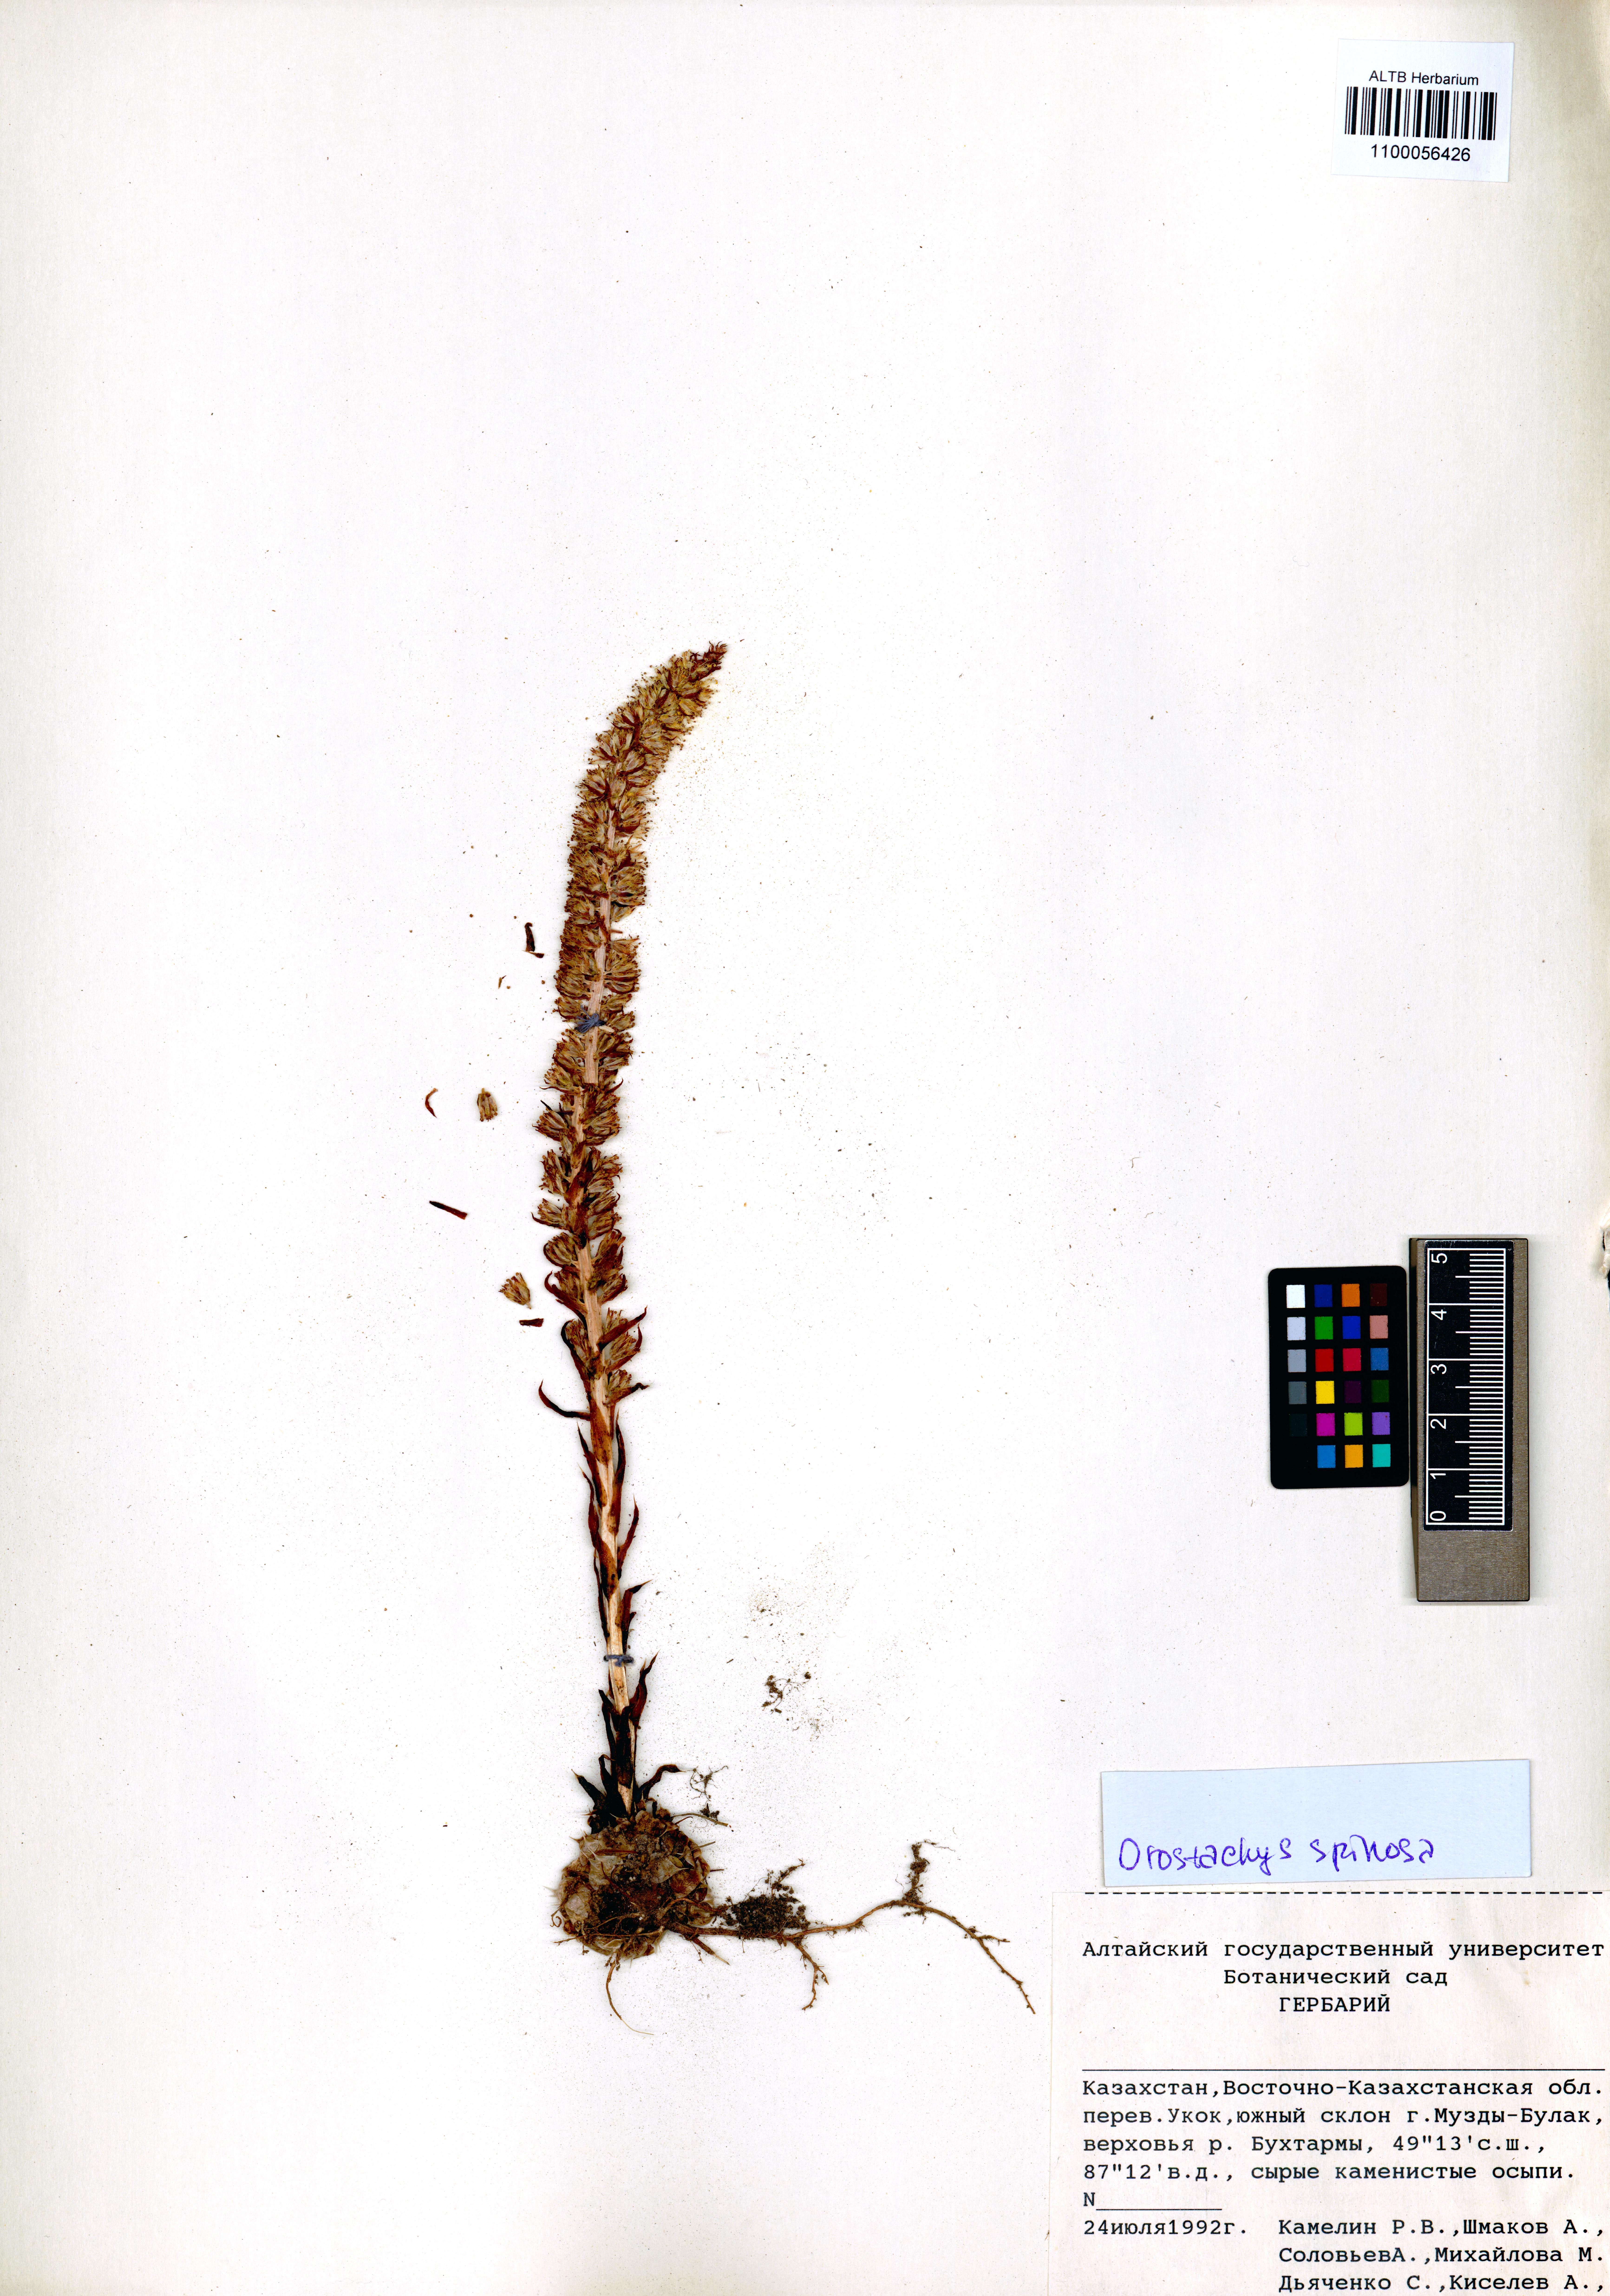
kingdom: Plantae
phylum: Tracheophyta
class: Magnoliopsida
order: Saxifragales
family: Crassulaceae
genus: Orostachys
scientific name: Orostachys spinosa
